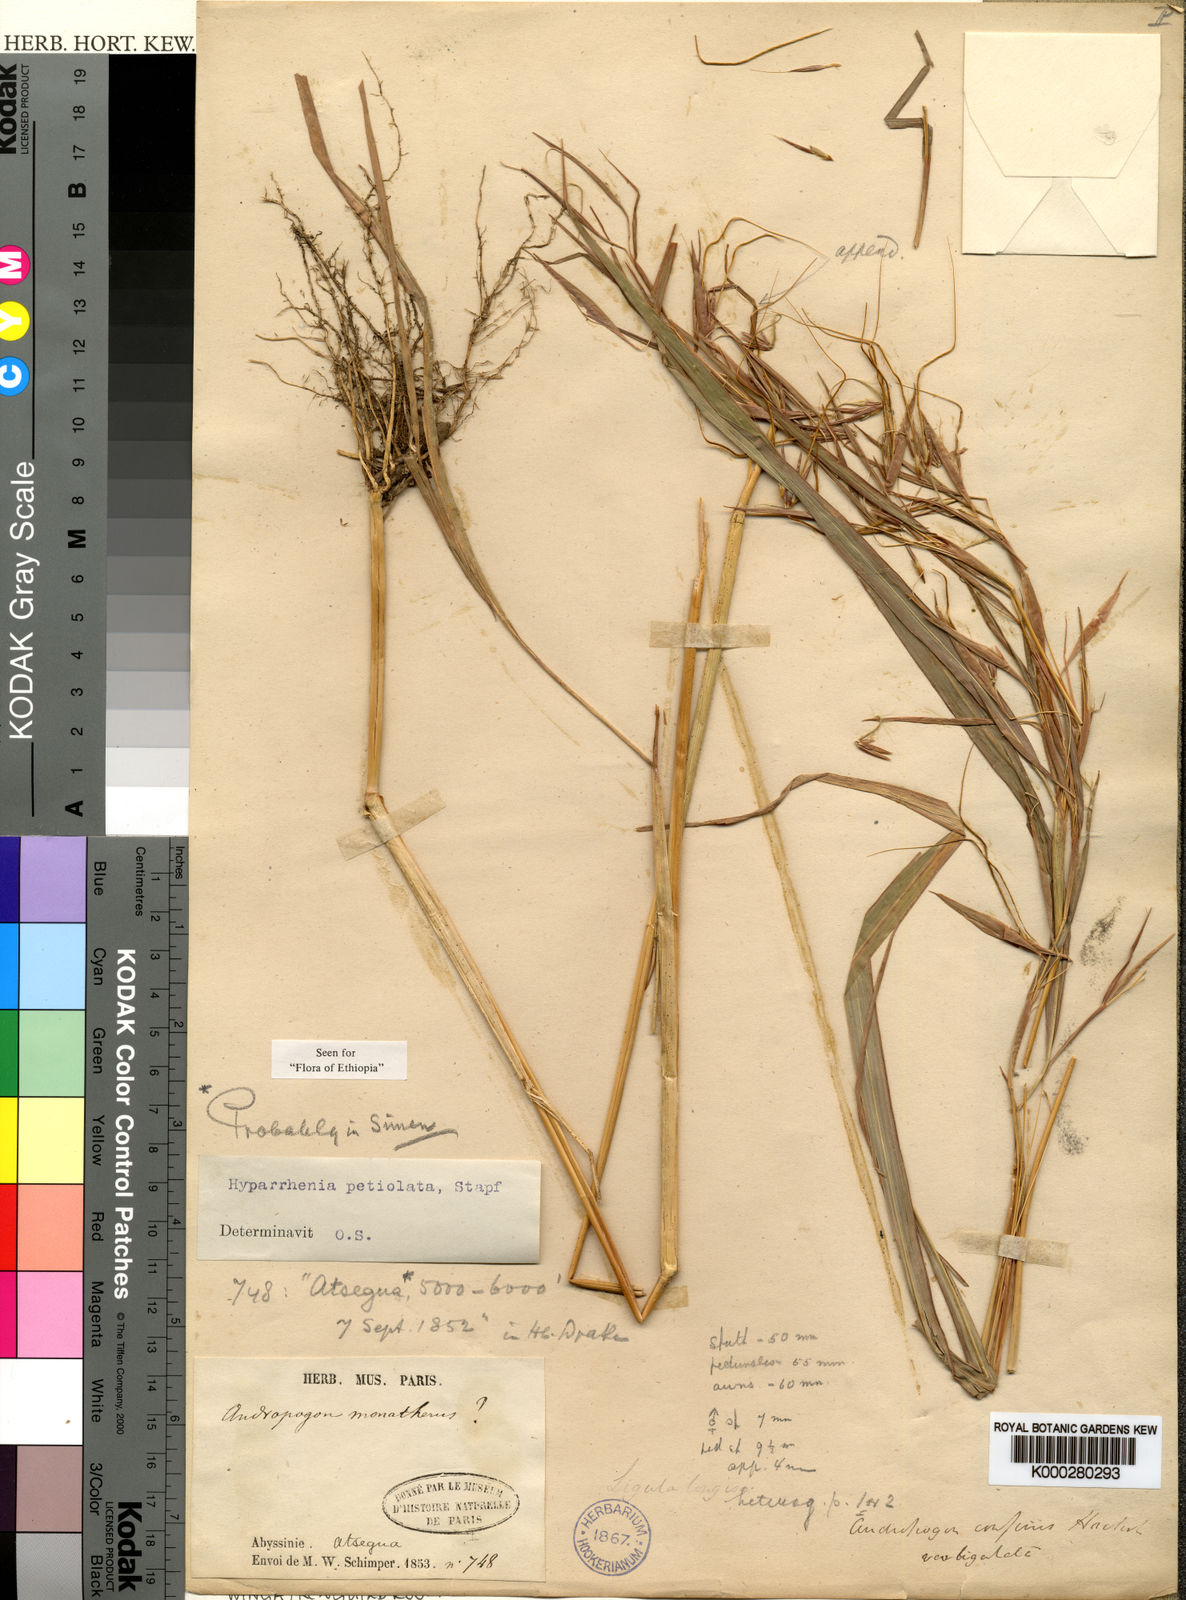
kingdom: Plantae
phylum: Tracheophyta
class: Liliopsida
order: Poales
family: Poaceae
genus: Hyparrhenia
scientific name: Hyparrhenia confinis
